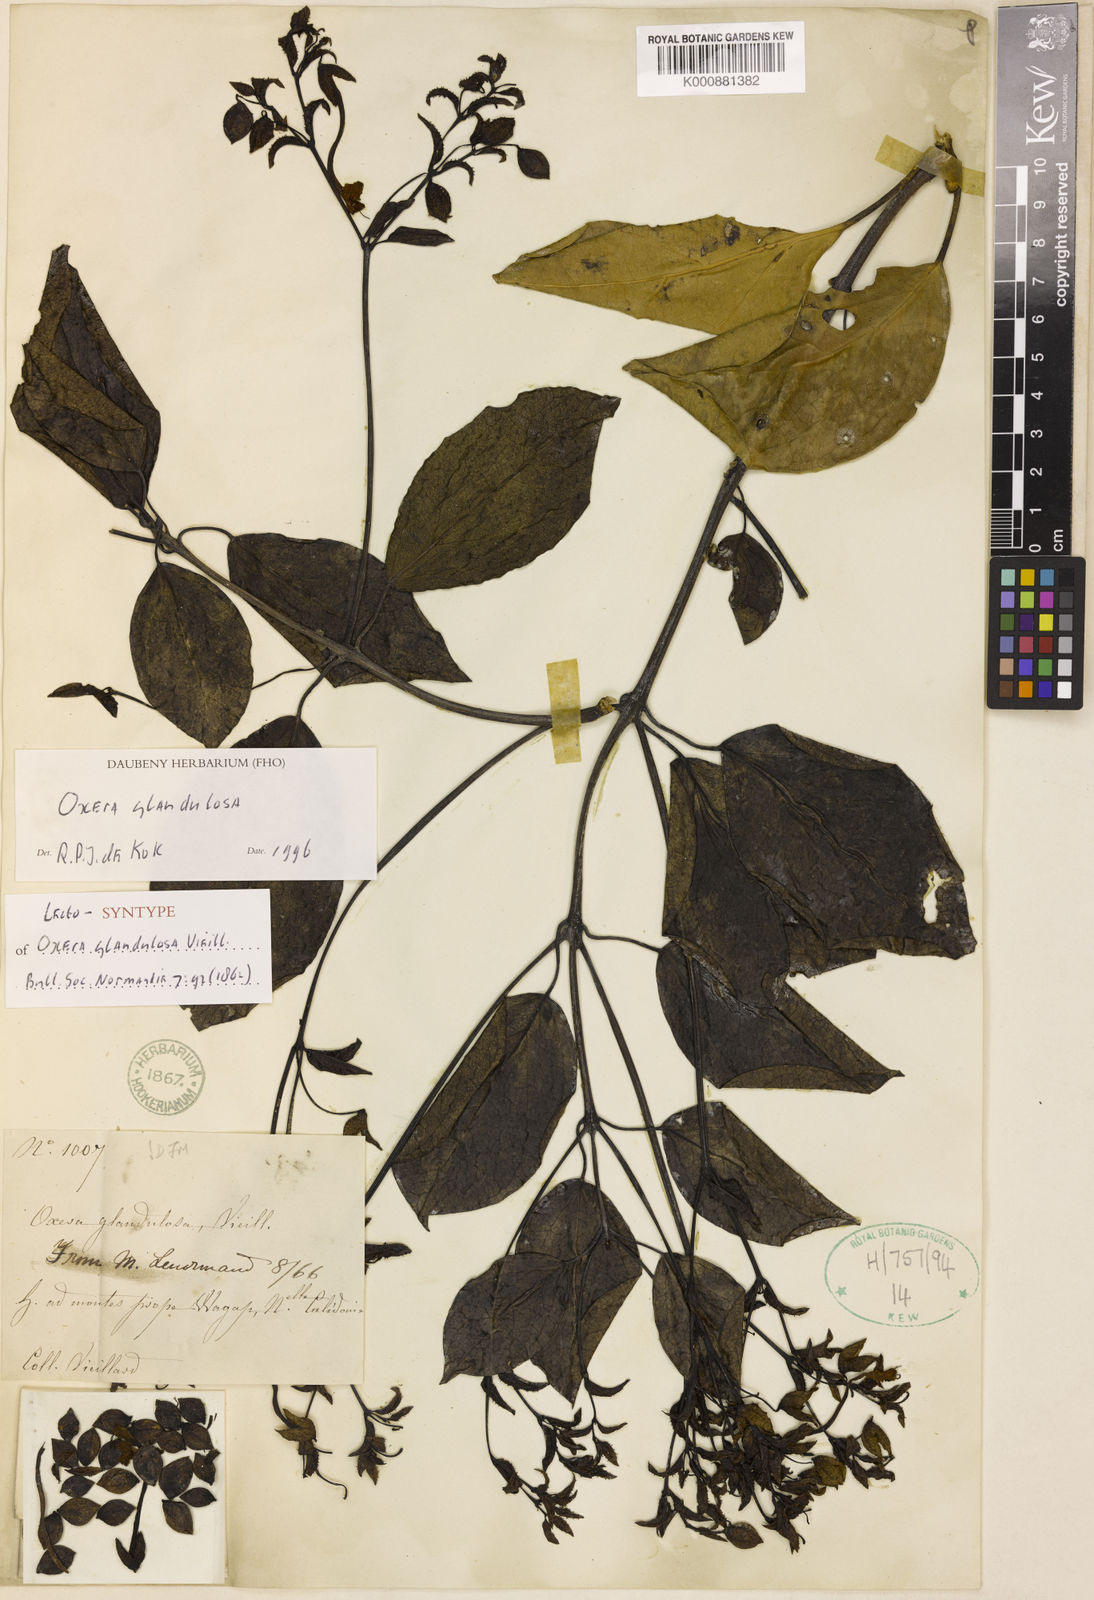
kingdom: Plantae
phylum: Tracheophyta
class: Magnoliopsida
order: Lamiales
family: Lamiaceae
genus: Oxera
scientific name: Oxera glandulosa
